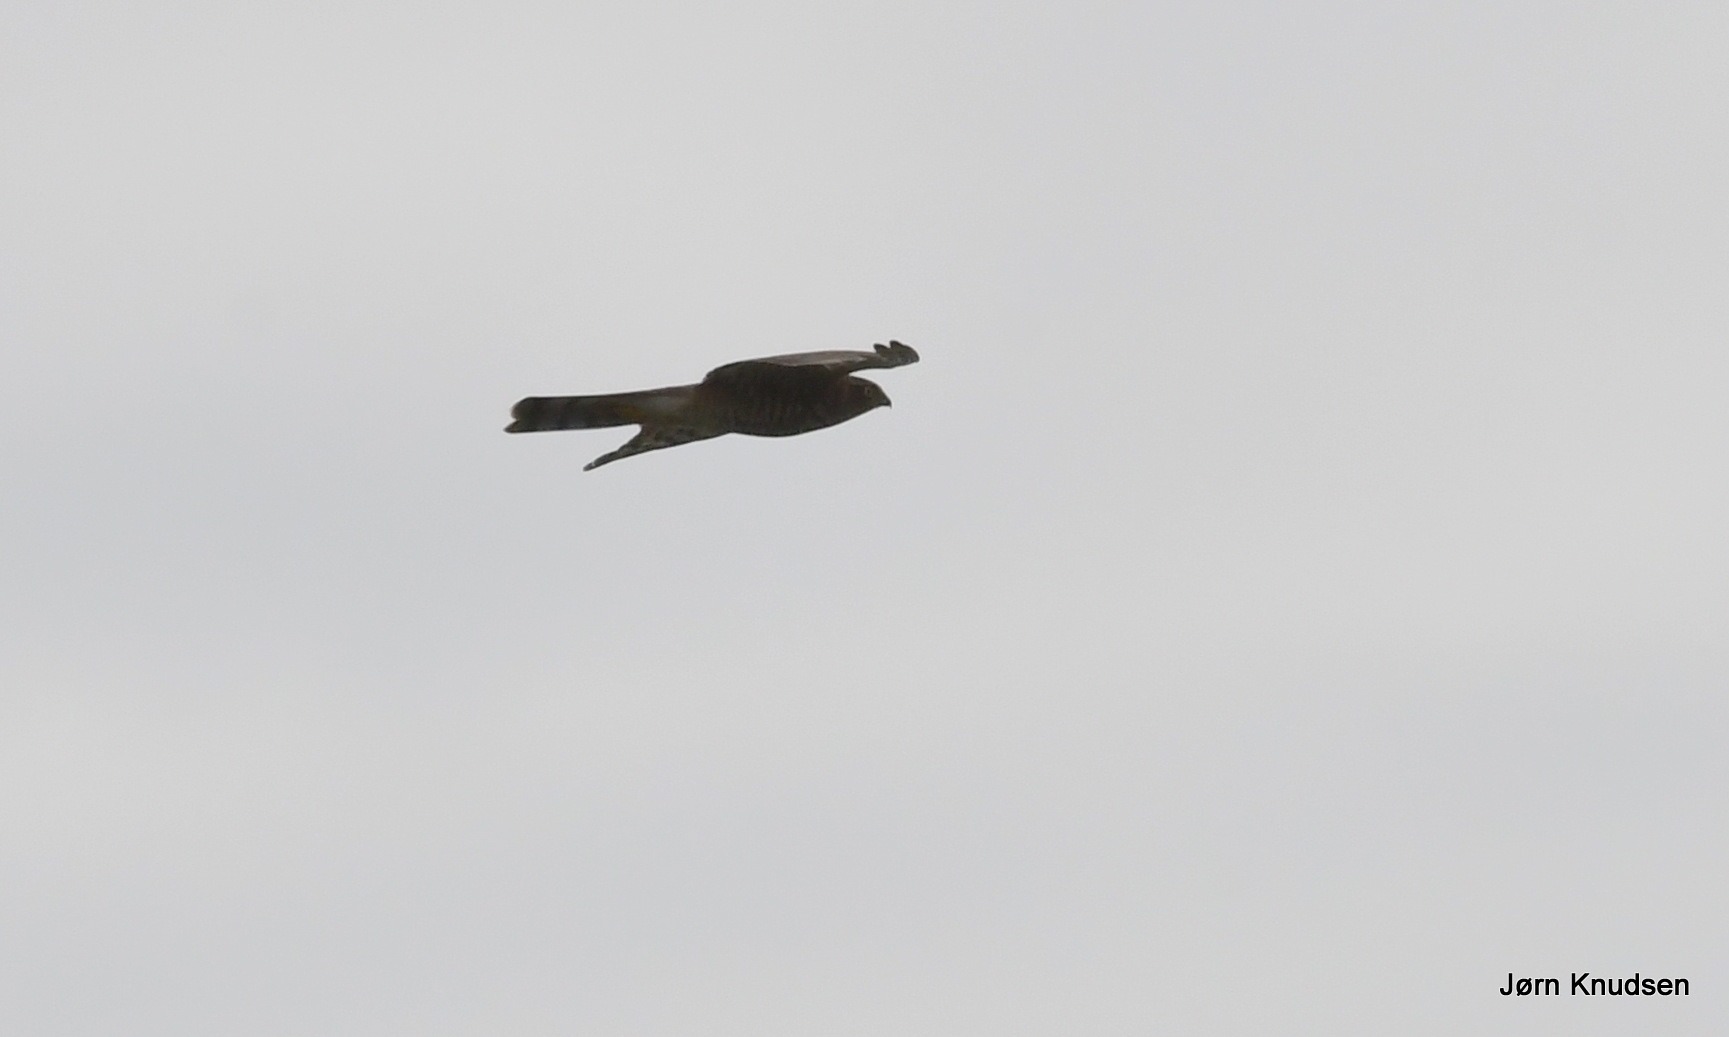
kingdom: Animalia
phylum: Chordata
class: Aves
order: Accipitriformes
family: Accipitridae
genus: Accipiter
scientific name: Accipiter nisus
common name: Spurvehøg
